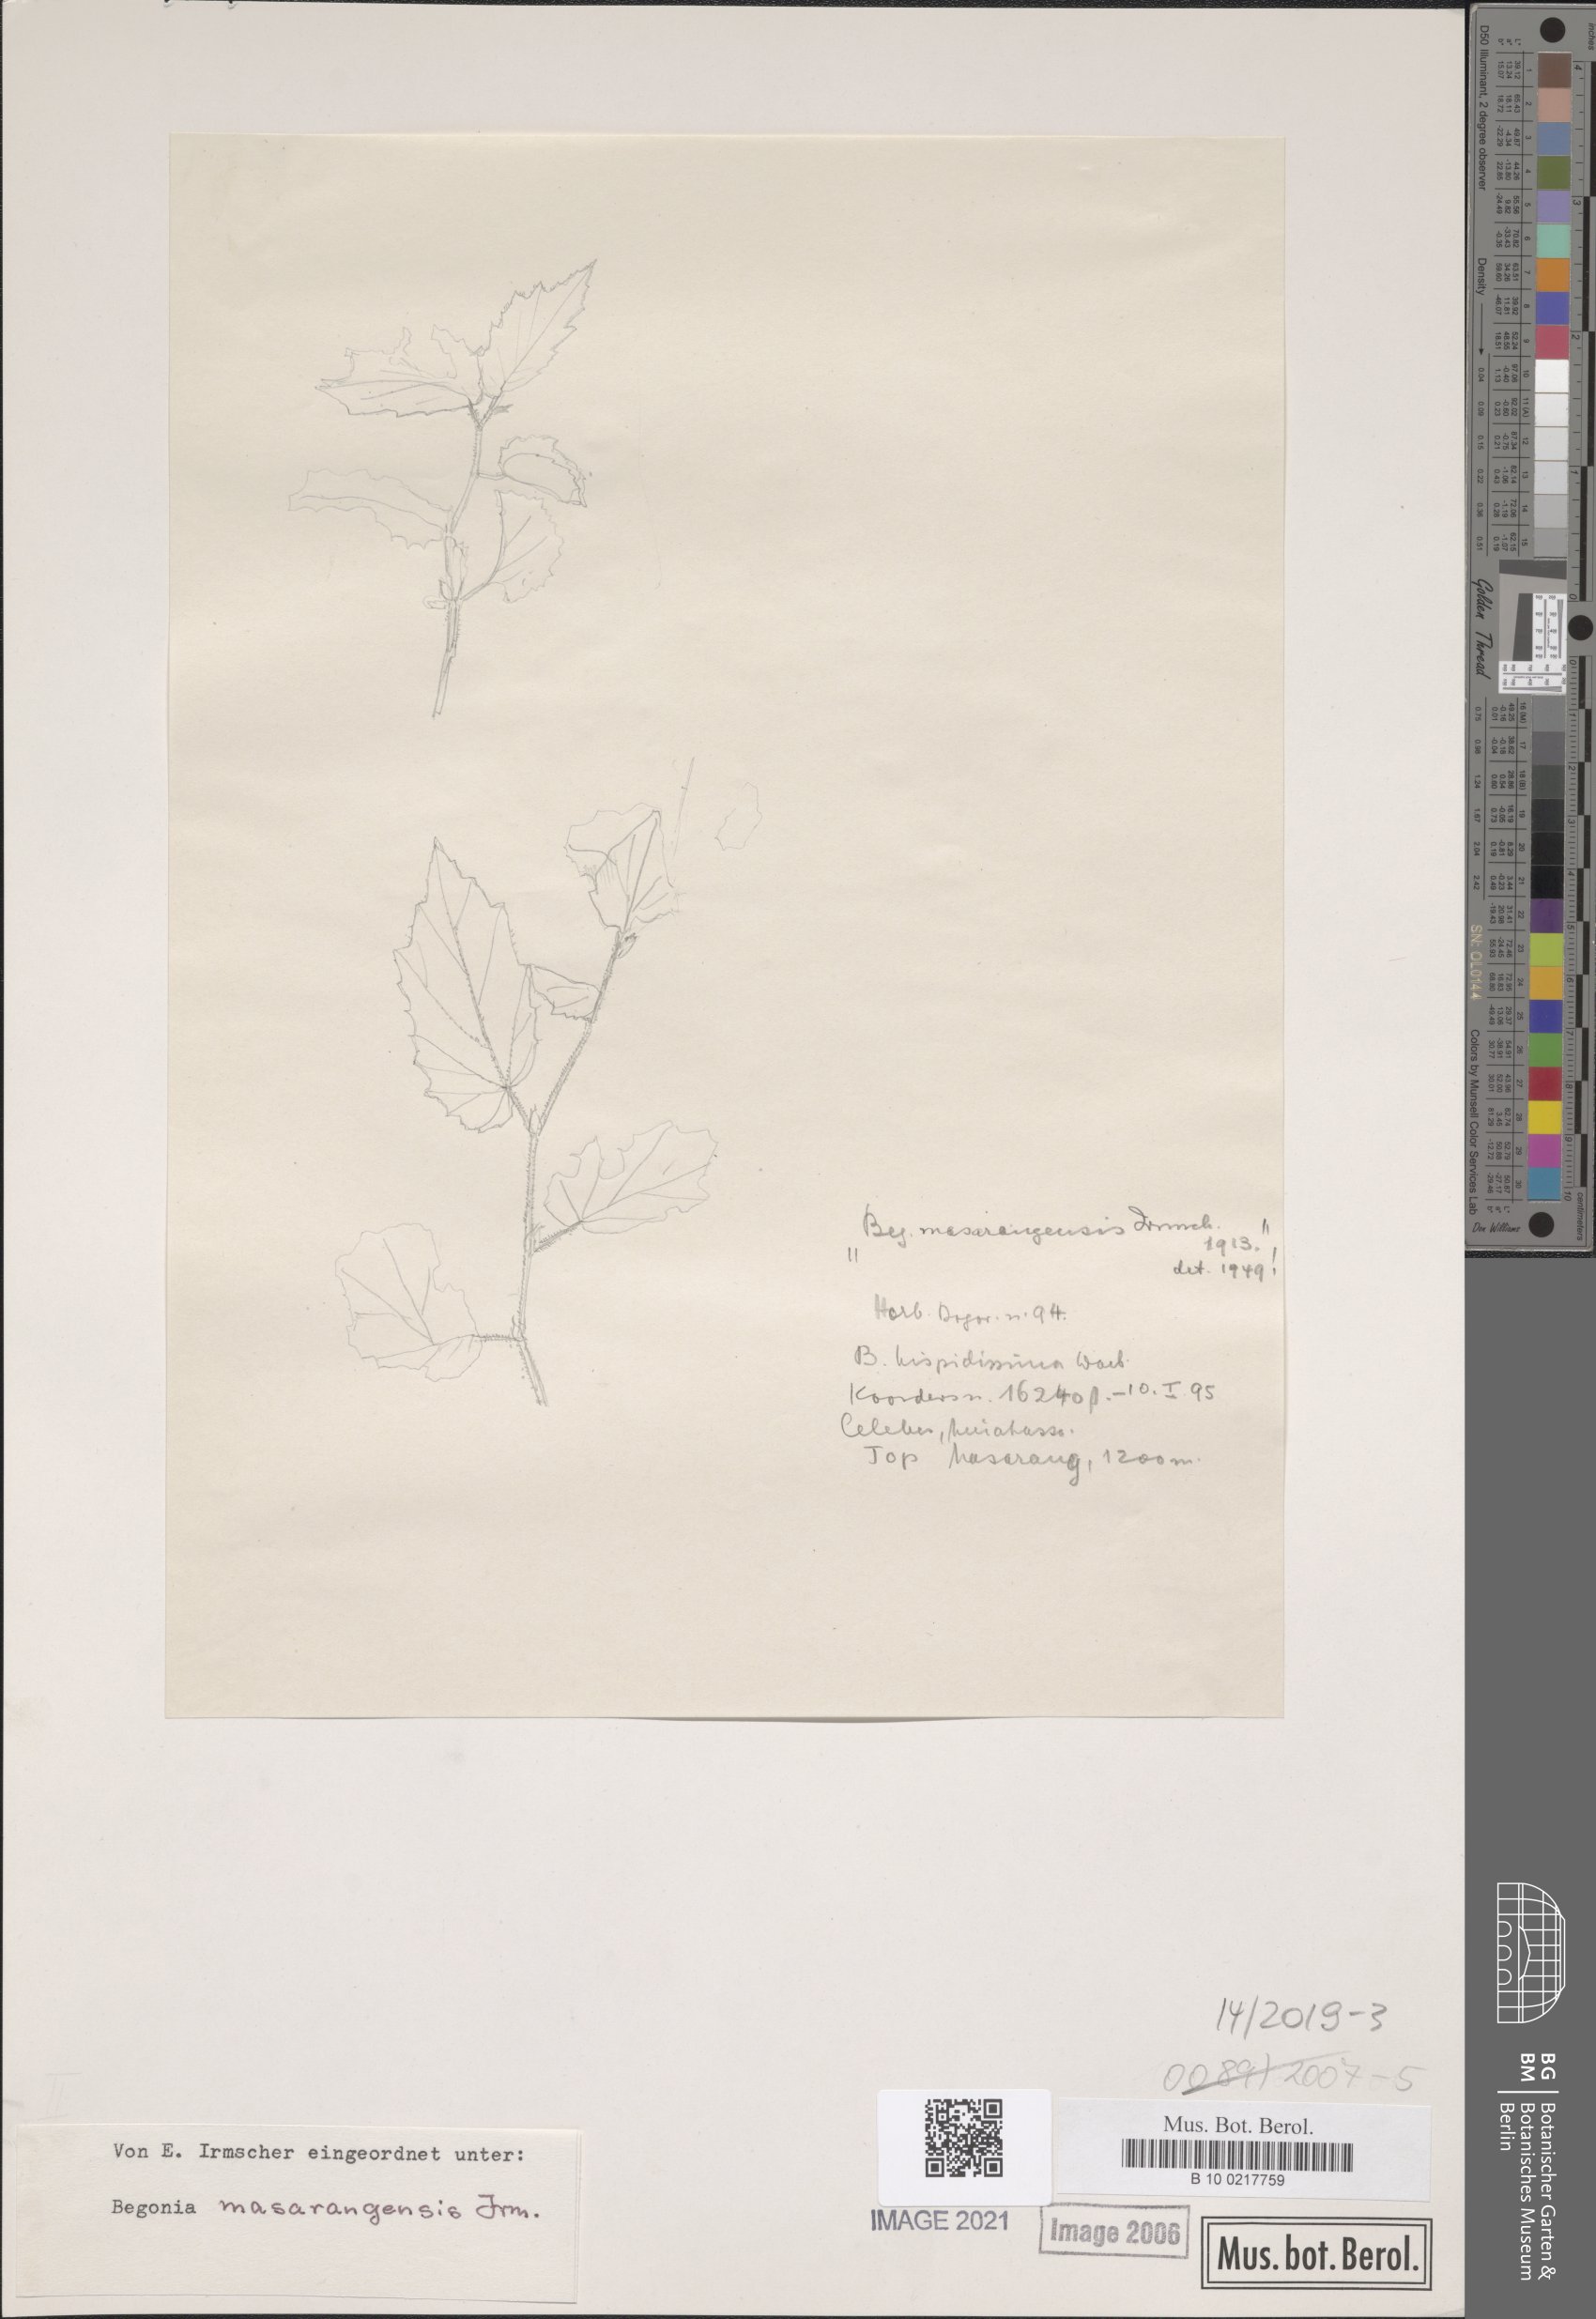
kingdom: Plantae
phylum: Tracheophyta
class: Magnoliopsida
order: Cucurbitales
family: Begoniaceae
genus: Begonia
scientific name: Begonia masarangensis
